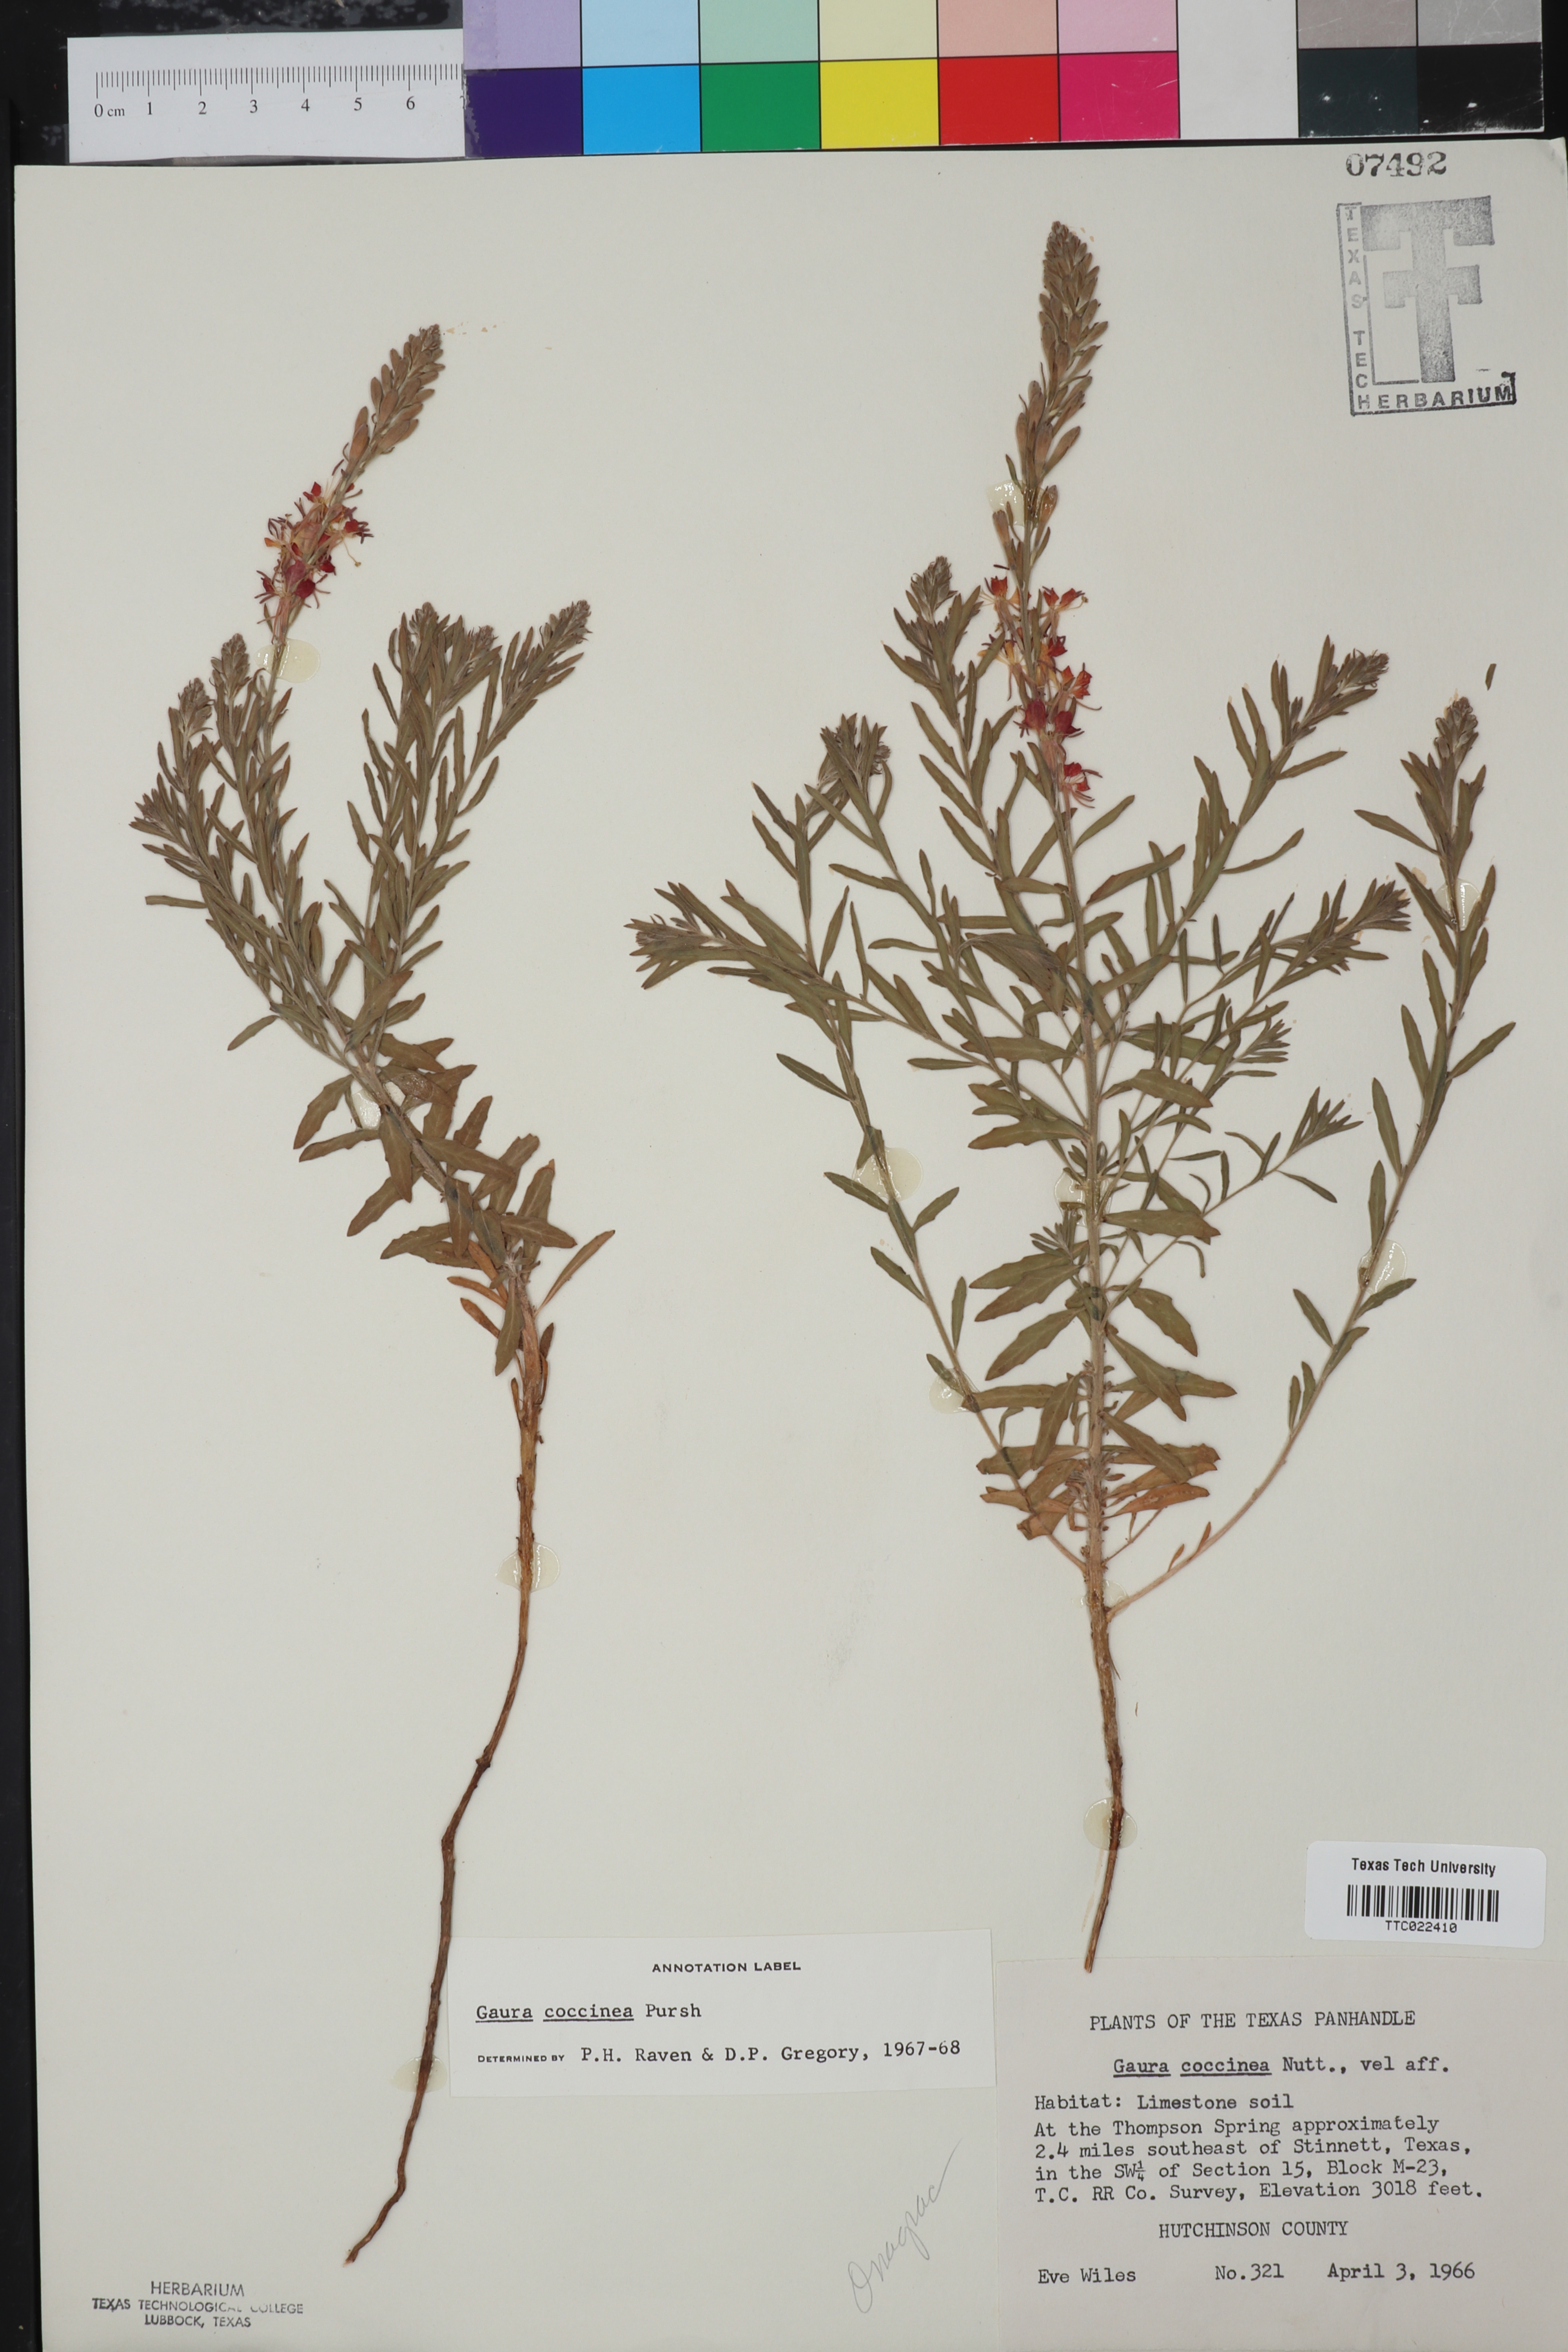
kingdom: Plantae
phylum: Tracheophyta
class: Magnoliopsida
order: Myrtales
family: Onagraceae
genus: Oenothera
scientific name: Oenothera suffrutescens
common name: Scarlet beeblossom
